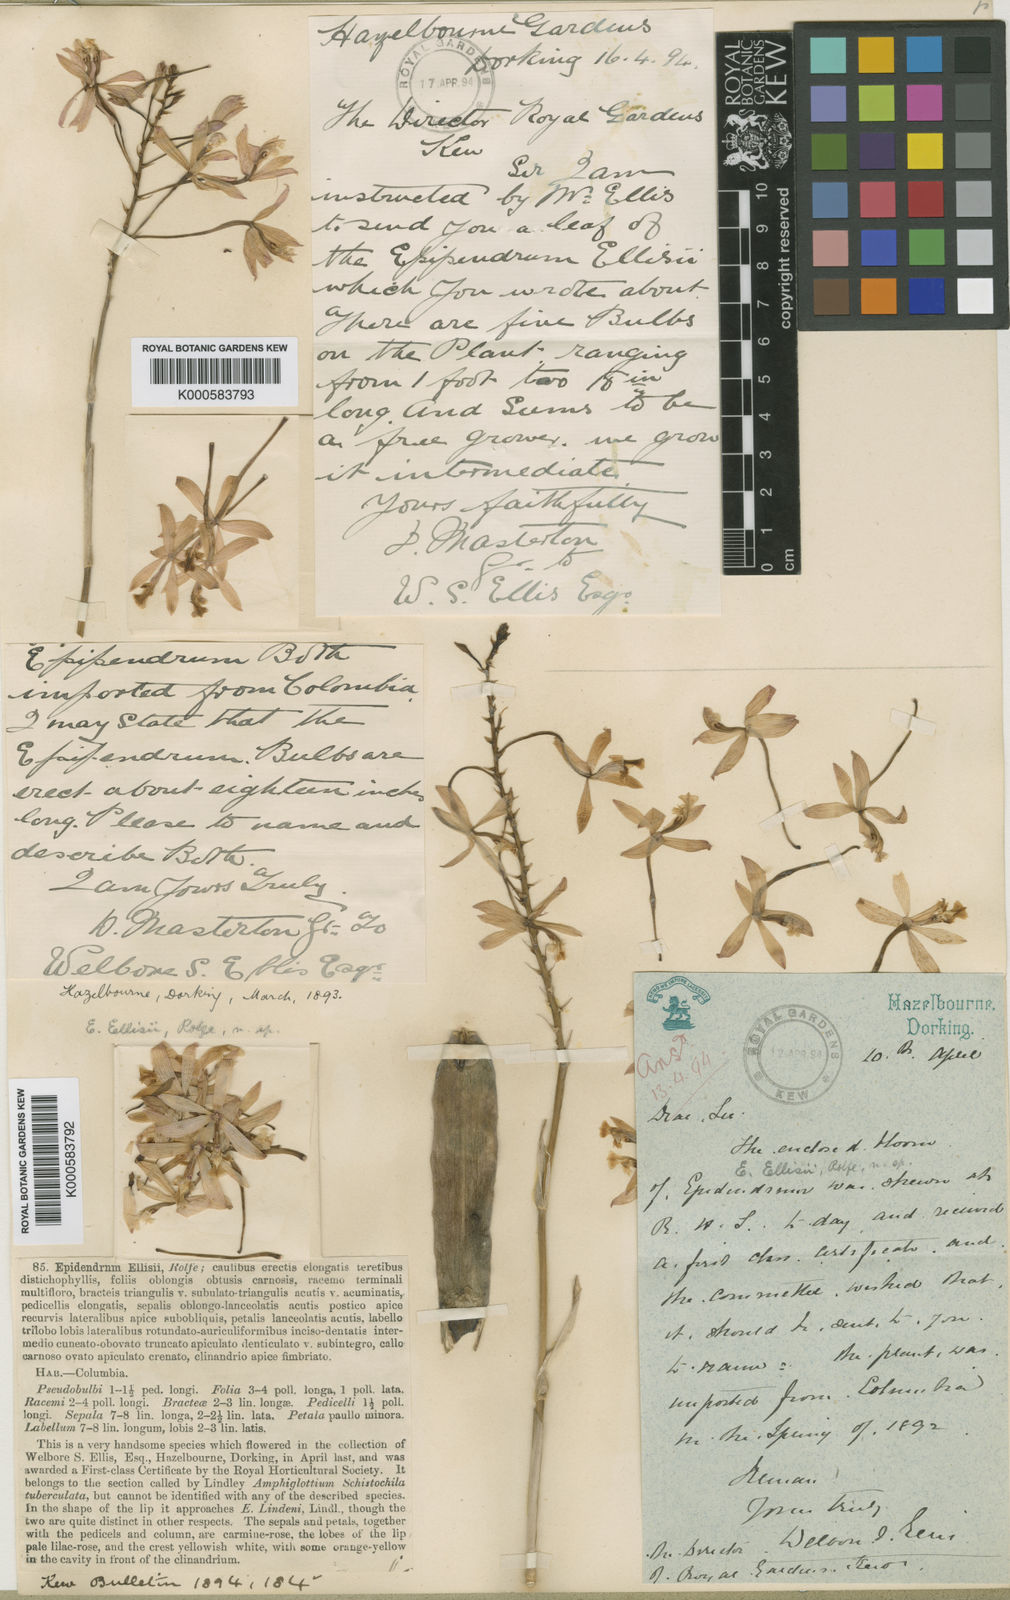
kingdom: Plantae
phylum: Tracheophyta
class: Liliopsida
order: Asparagales
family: Orchidaceae
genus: Epidendrum
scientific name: Epidendrum ellisii
